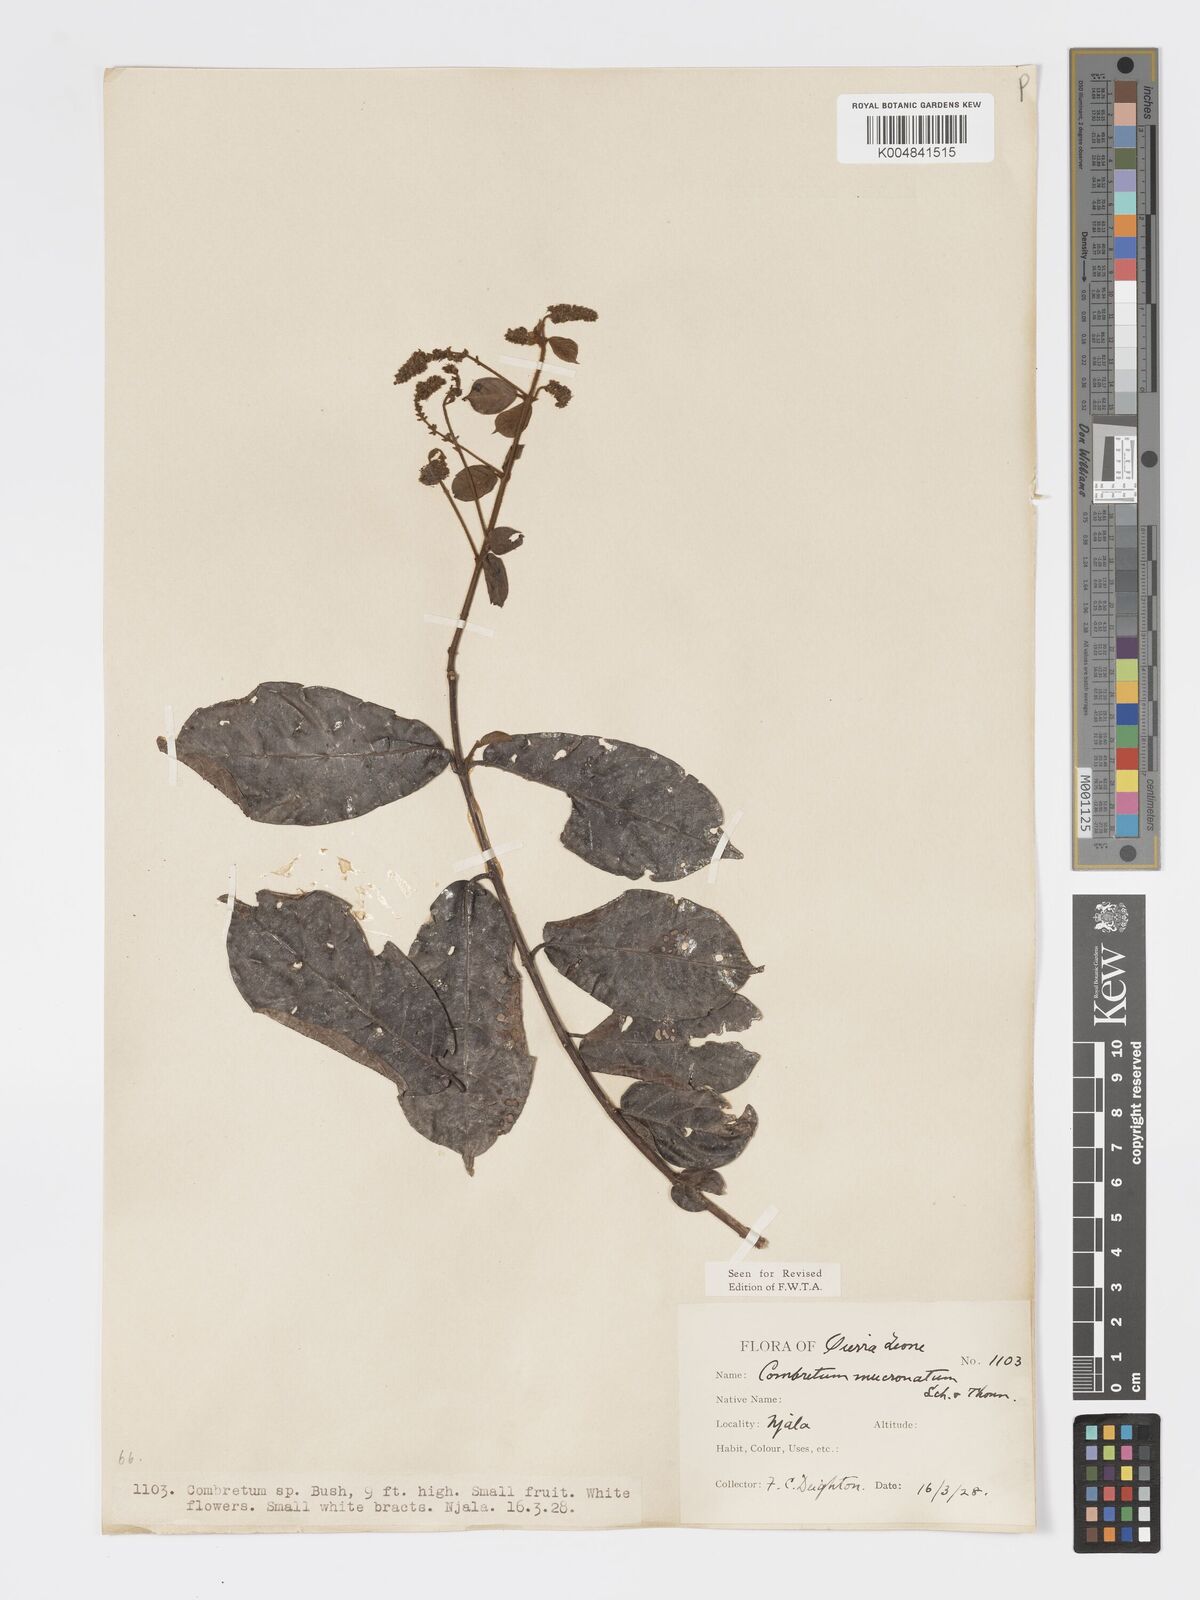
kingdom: Plantae
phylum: Tracheophyta
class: Magnoliopsida
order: Myrtales
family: Combretaceae
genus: Combretum
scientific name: Combretum mucronatum
